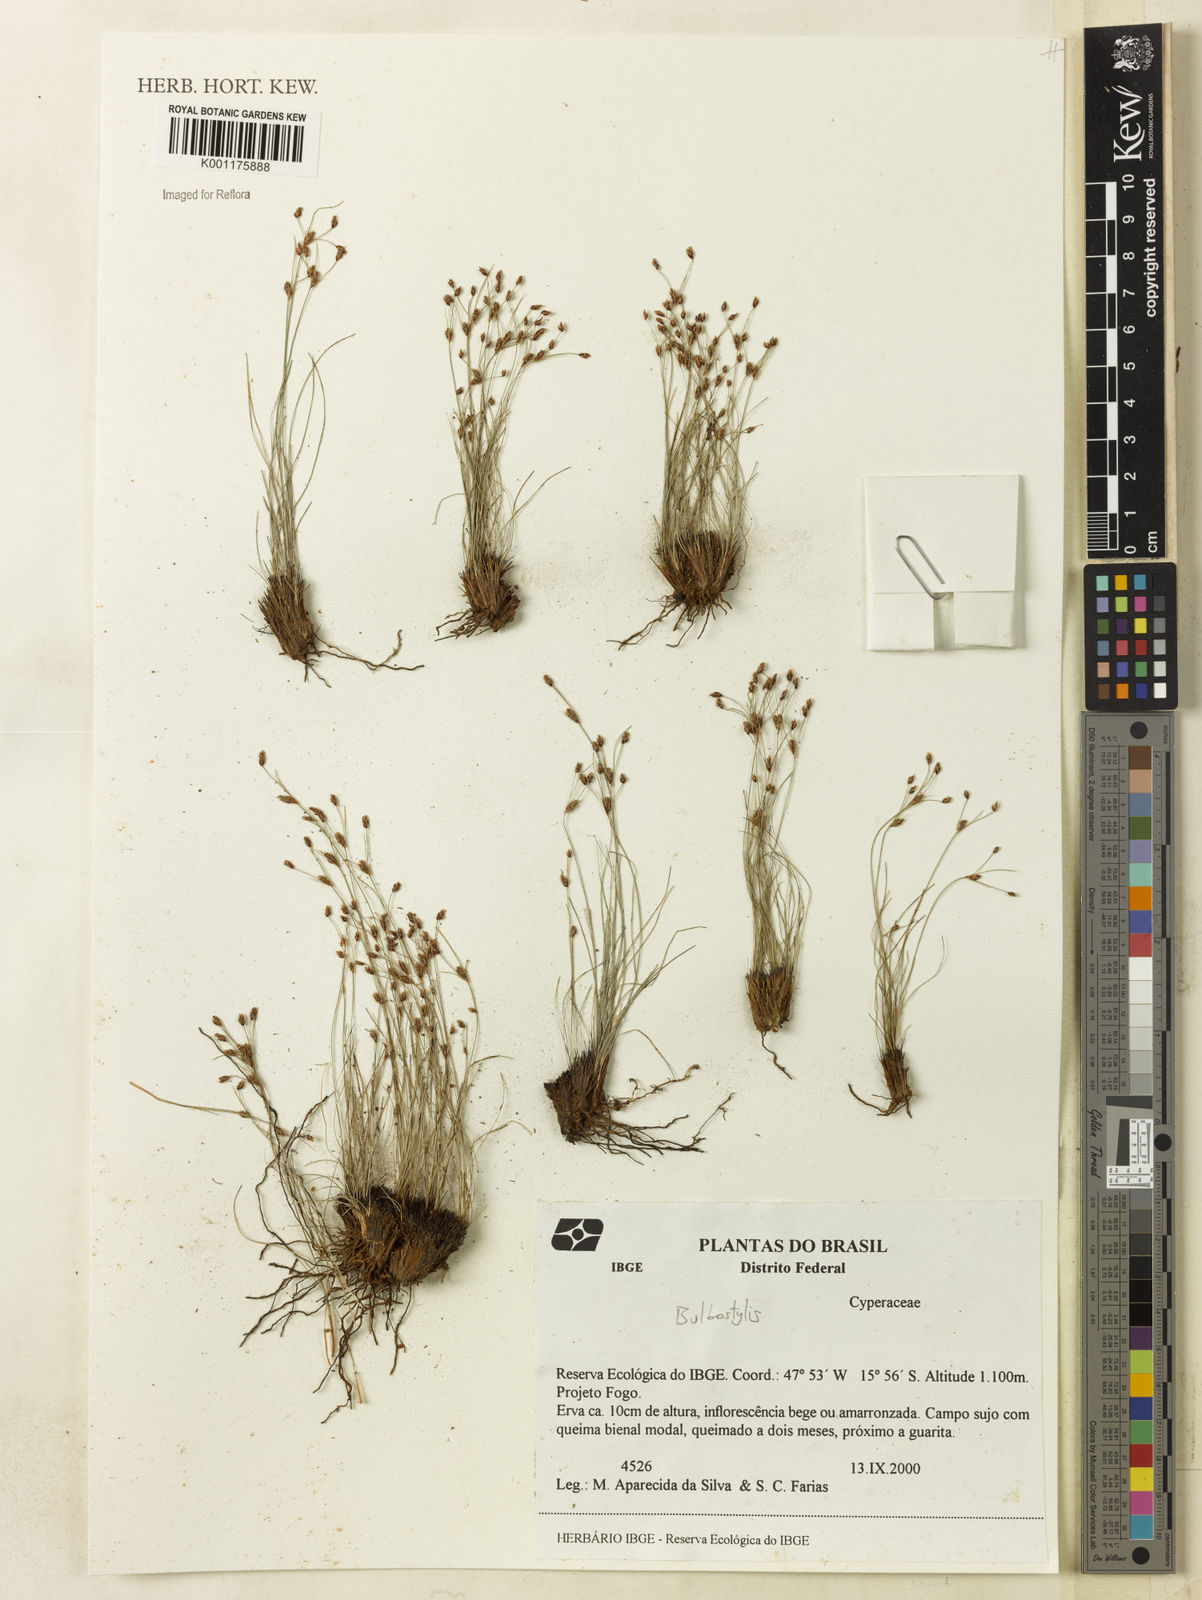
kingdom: Plantae
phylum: Tracheophyta
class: Liliopsida
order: Poales
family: Cyperaceae
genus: Bulbostylis
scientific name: Bulbostylis
